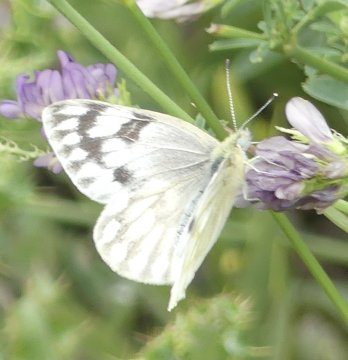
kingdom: Animalia
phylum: Arthropoda
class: Insecta
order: Lepidoptera
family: Pieridae
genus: Pontia
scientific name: Pontia occidentalis
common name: Western White
